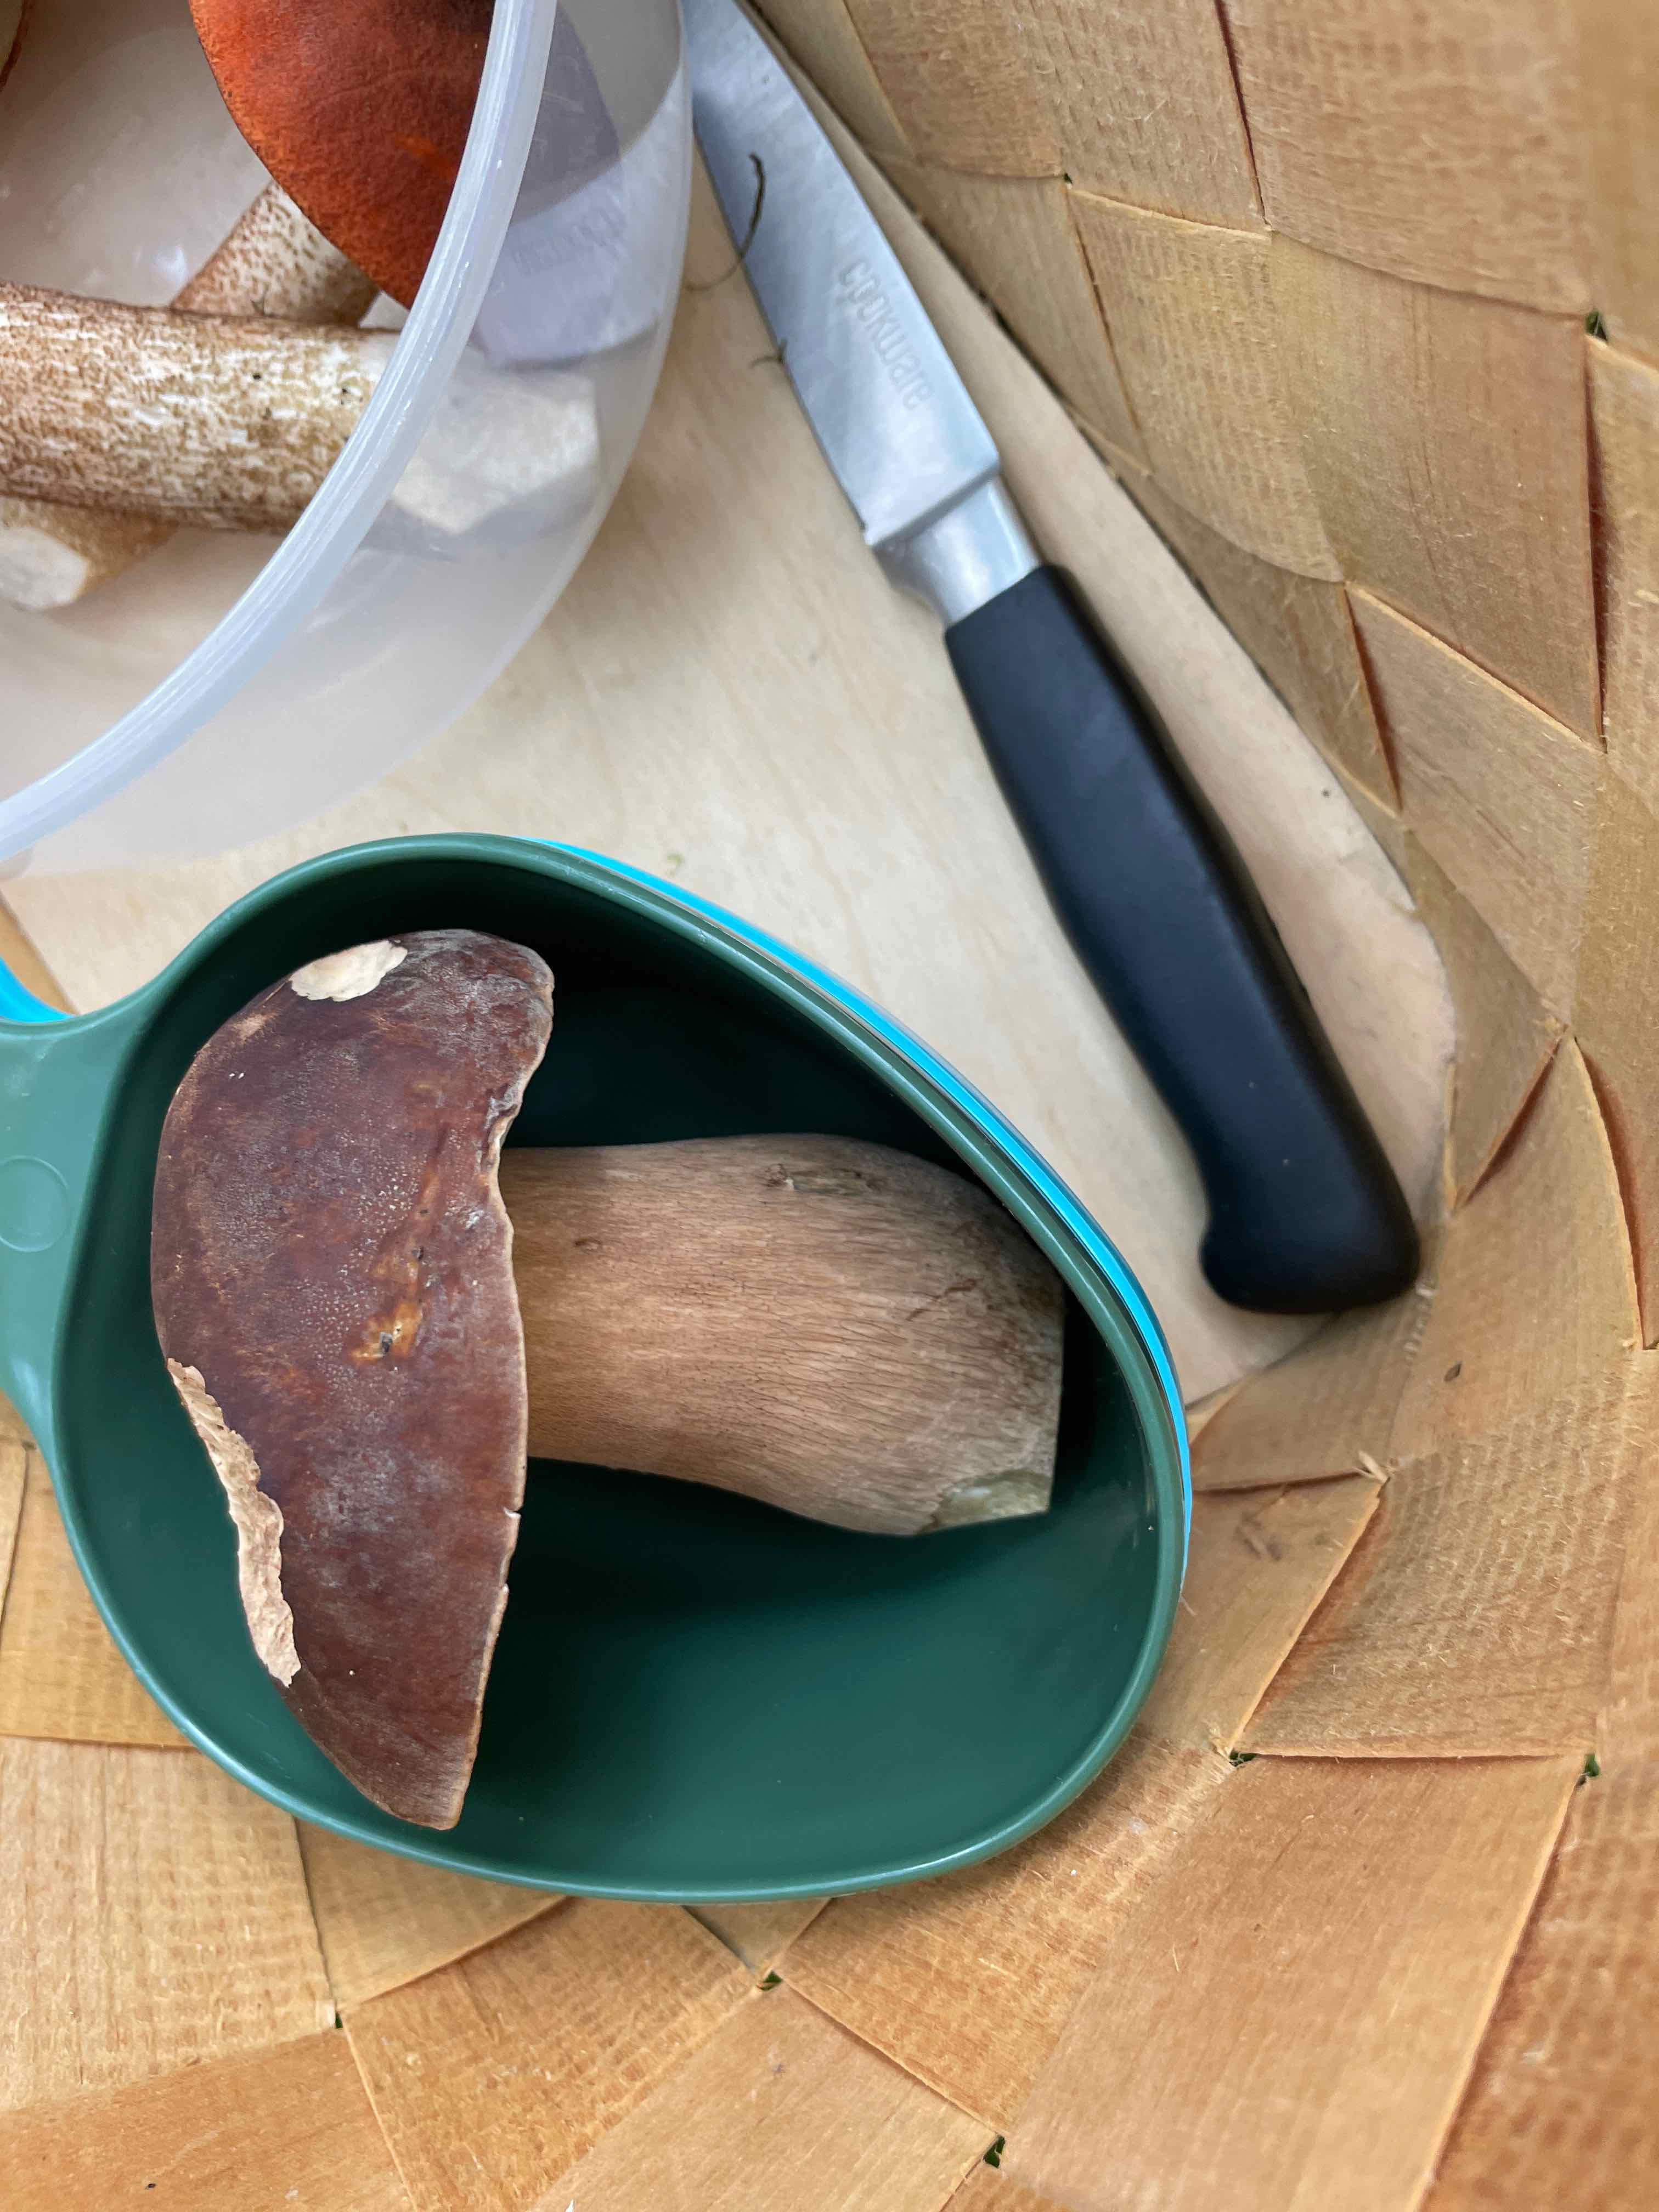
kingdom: Fungi
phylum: Basidiomycota
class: Agaricomycetes
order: Boletales
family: Boletaceae
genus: Boletus
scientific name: Boletus edulis
